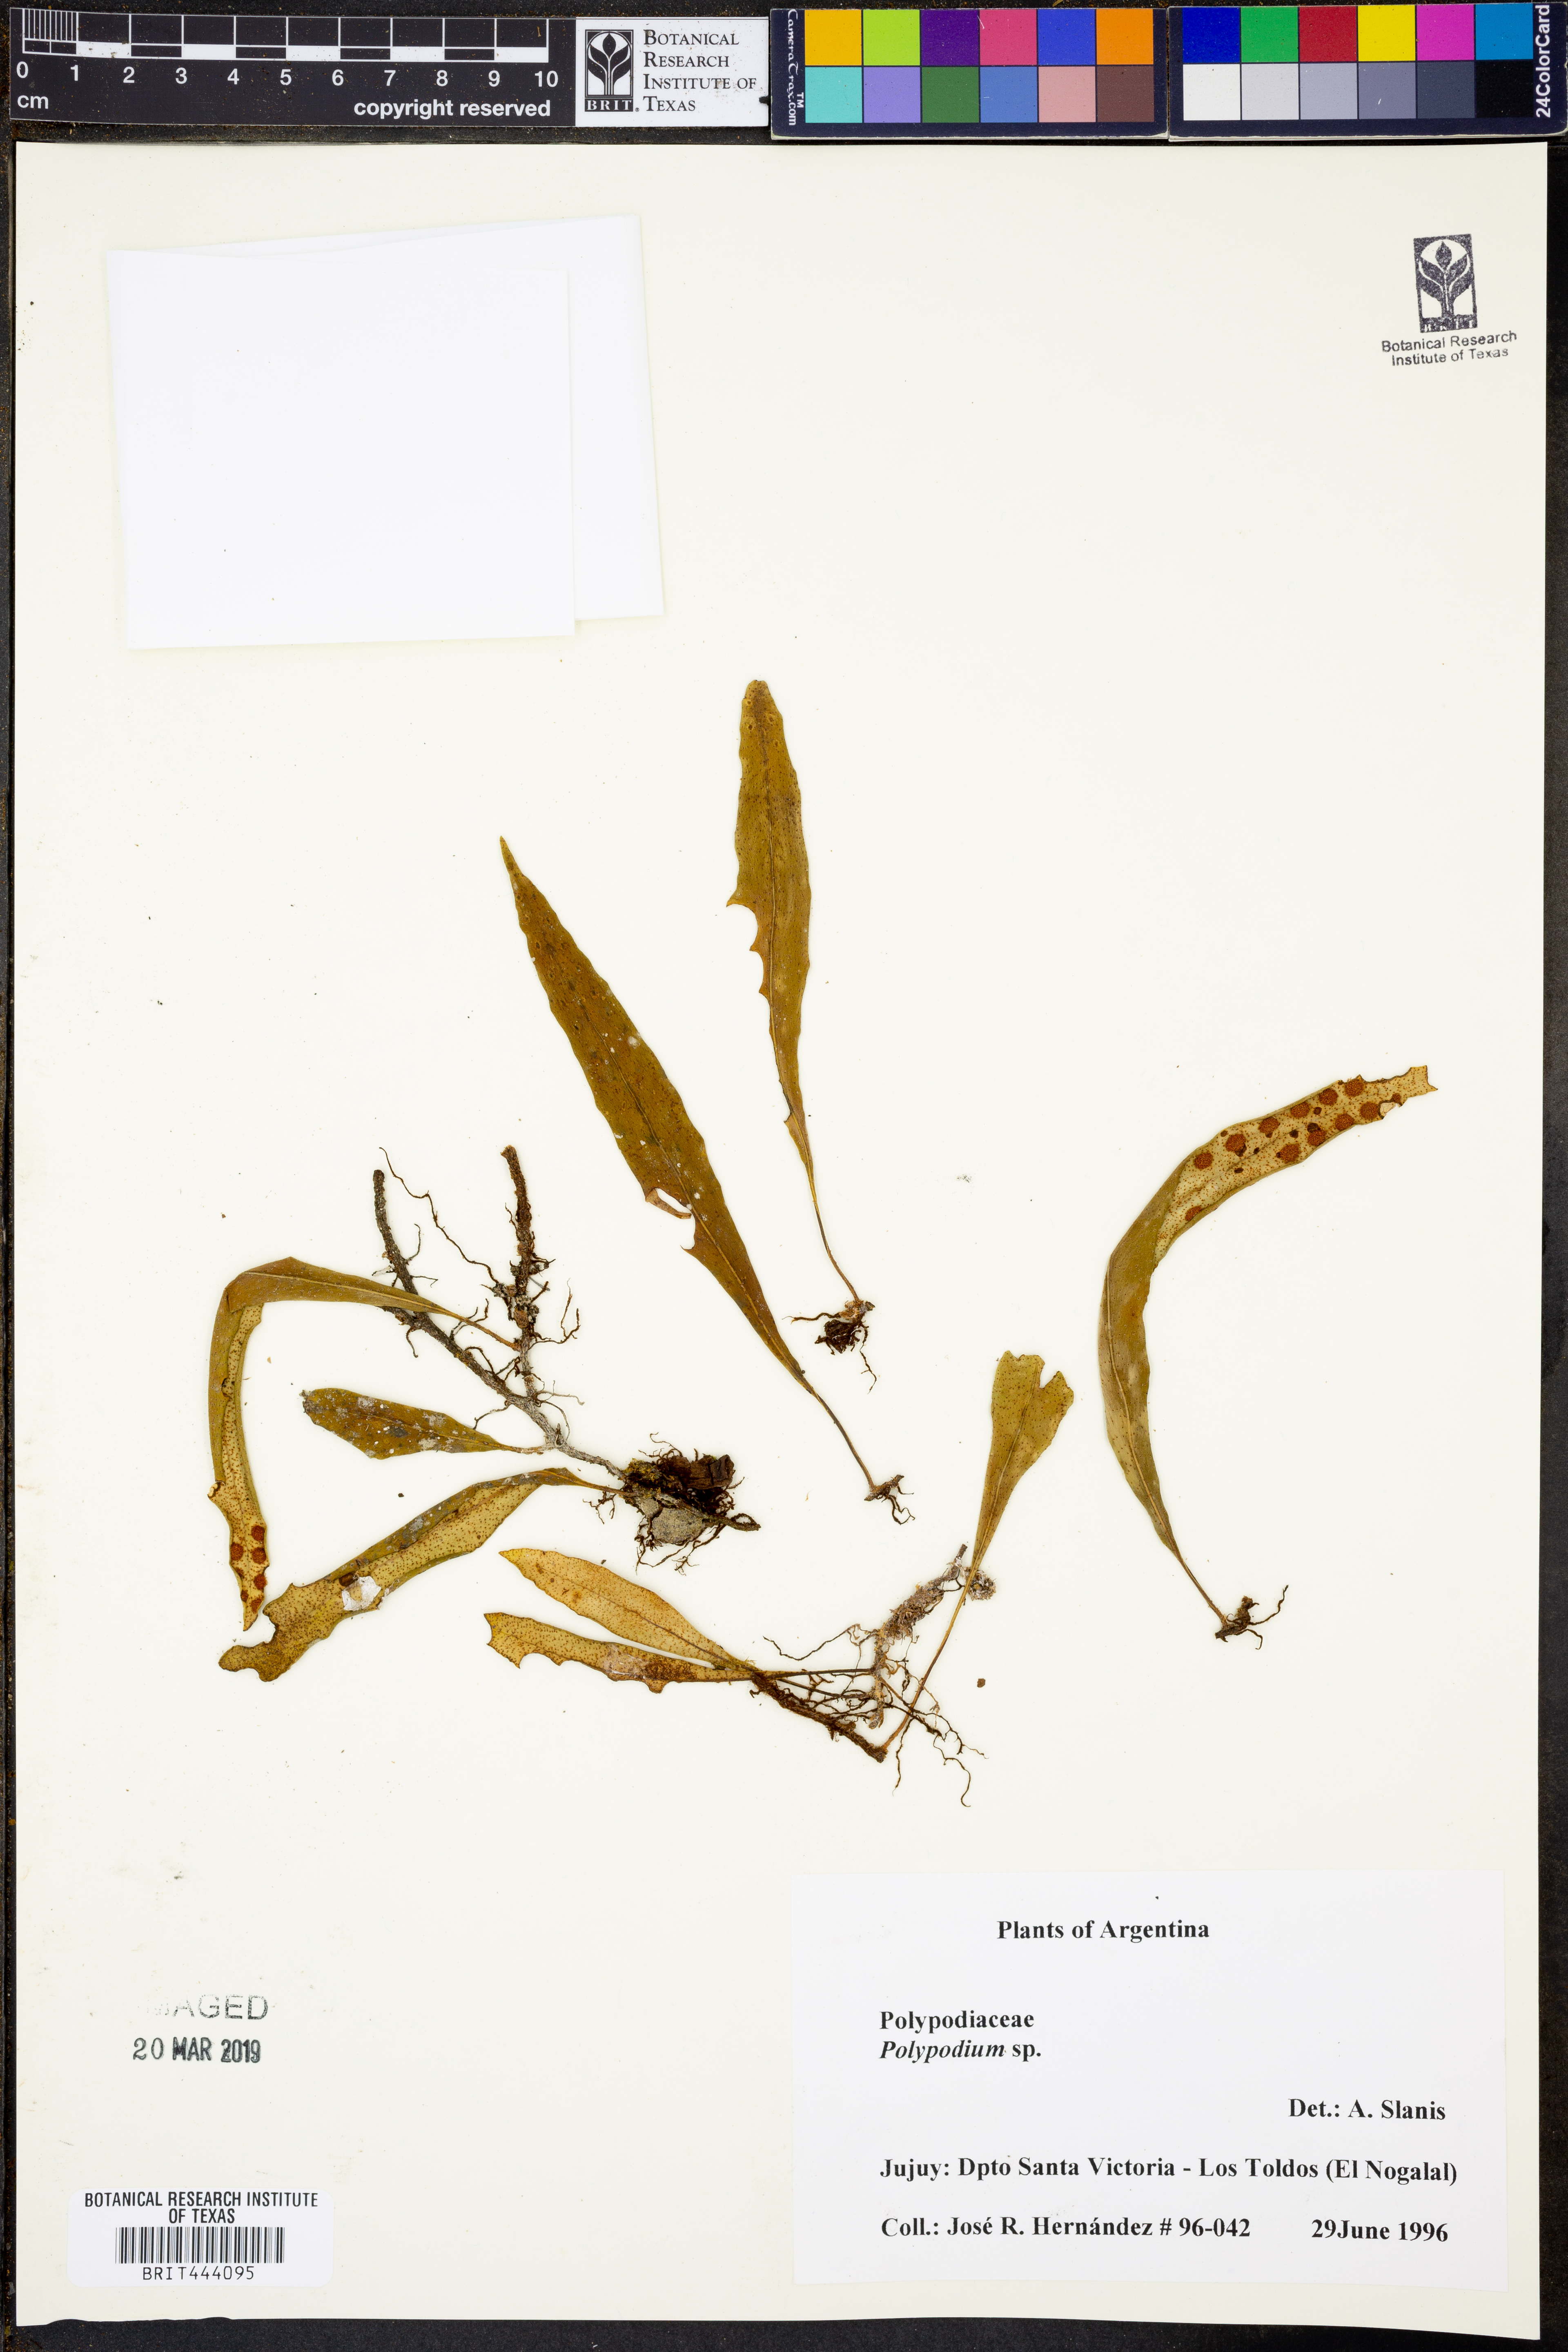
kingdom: Plantae
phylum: Tracheophyta
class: Polypodiopsida
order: Polypodiales
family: Polypodiaceae
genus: Polypodium
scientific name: Polypodium
